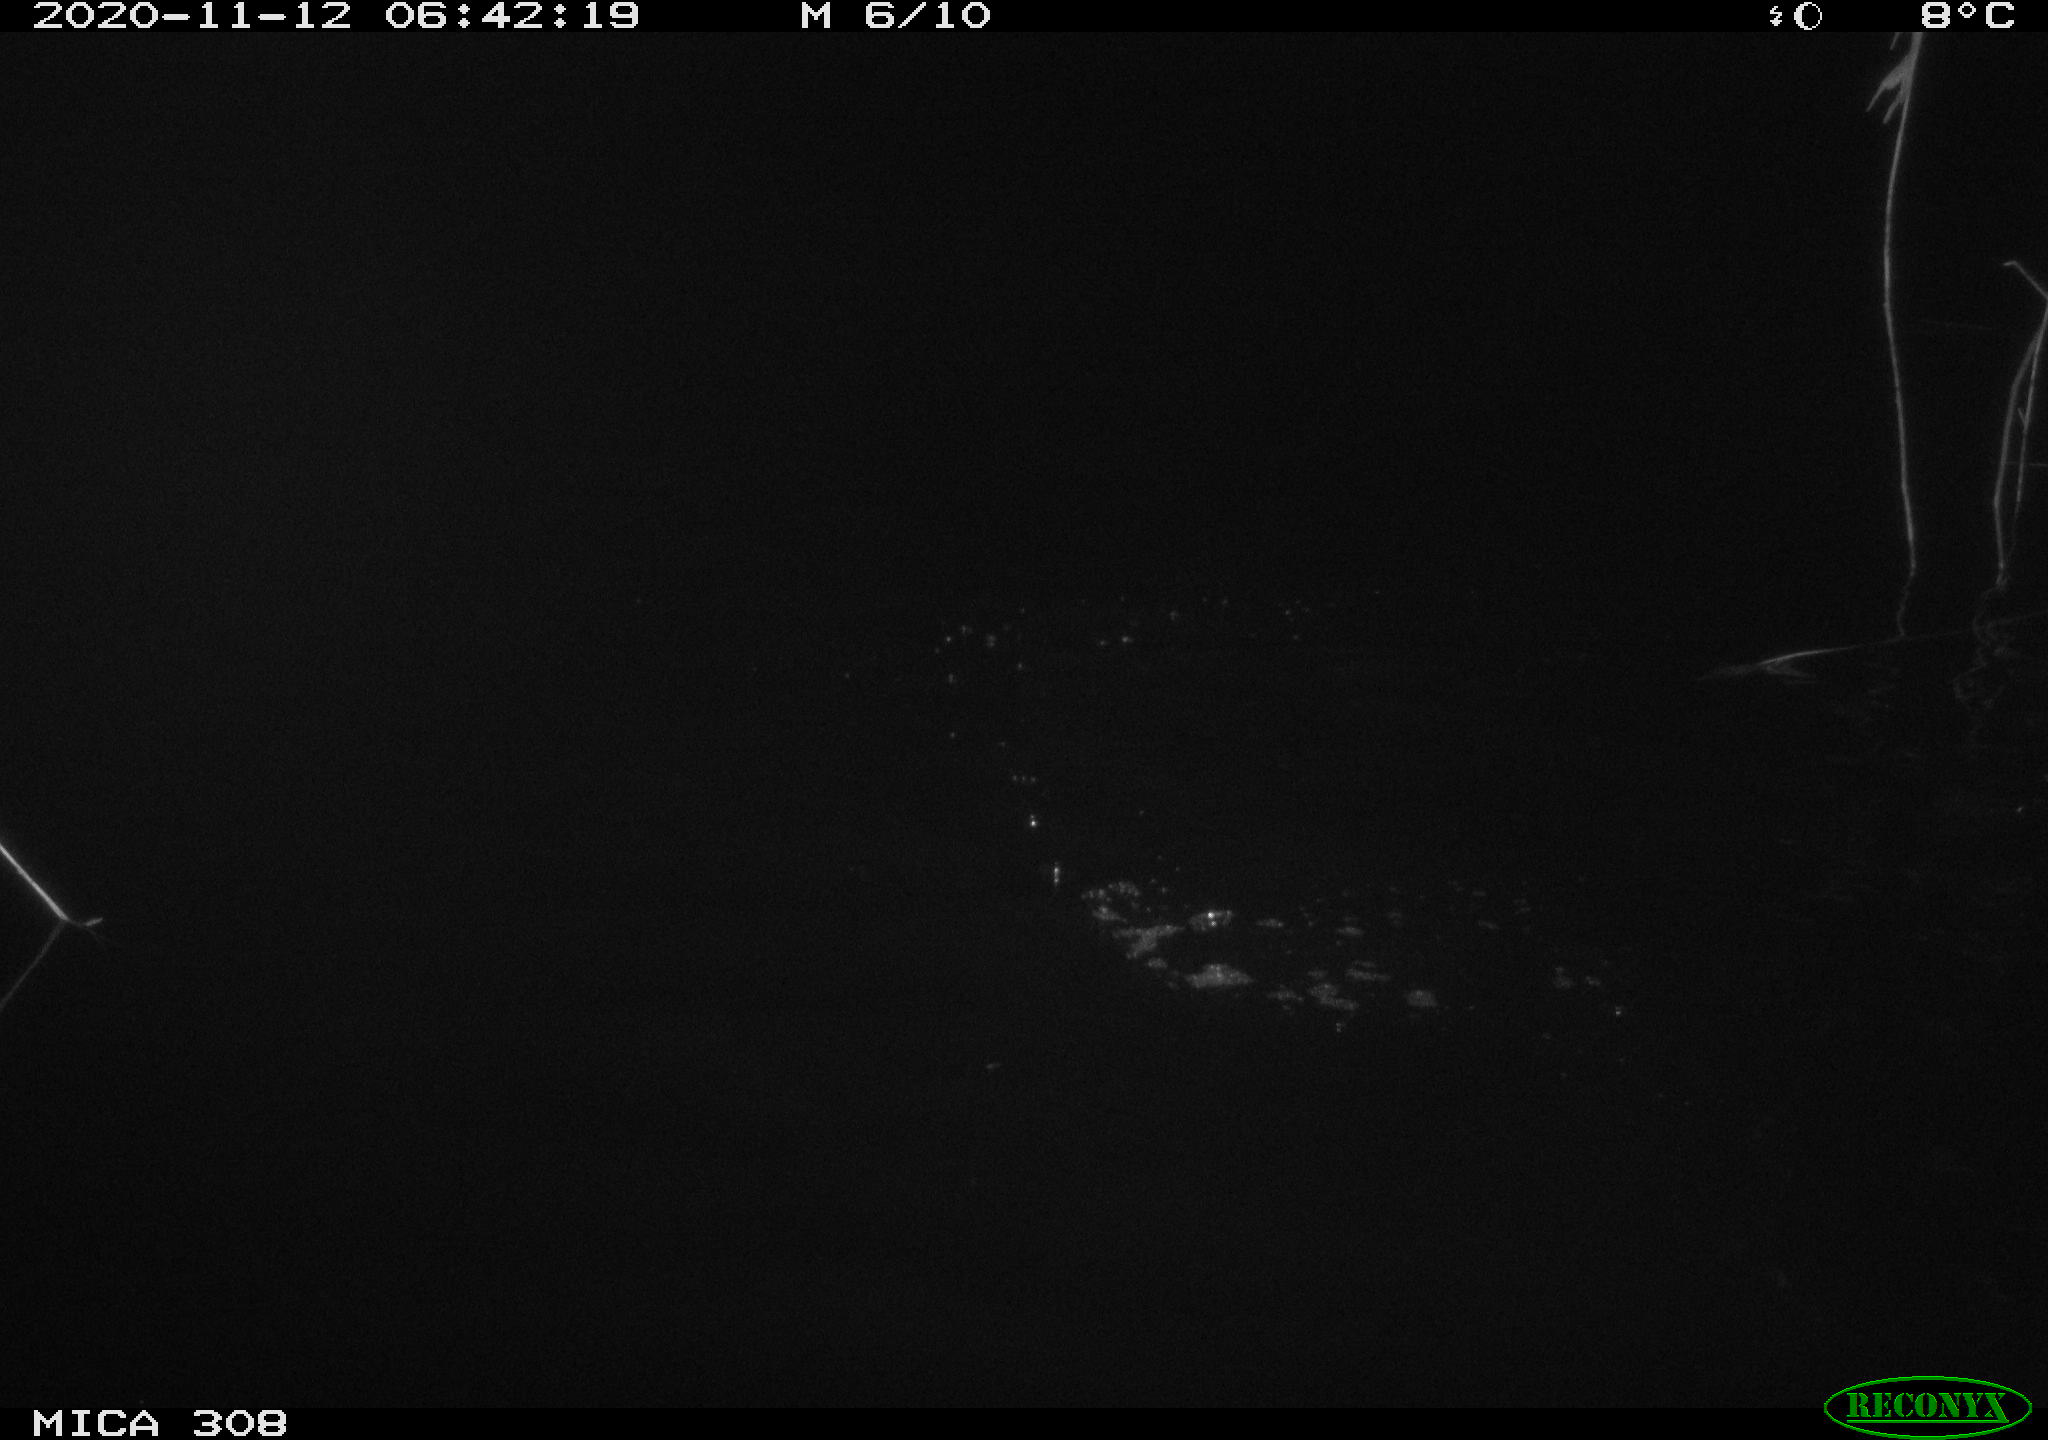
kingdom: Animalia
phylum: Chordata
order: Cypriniformes
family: Cyprinidae
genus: Cyprinus
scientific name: Cyprinus carpio
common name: Common carp
